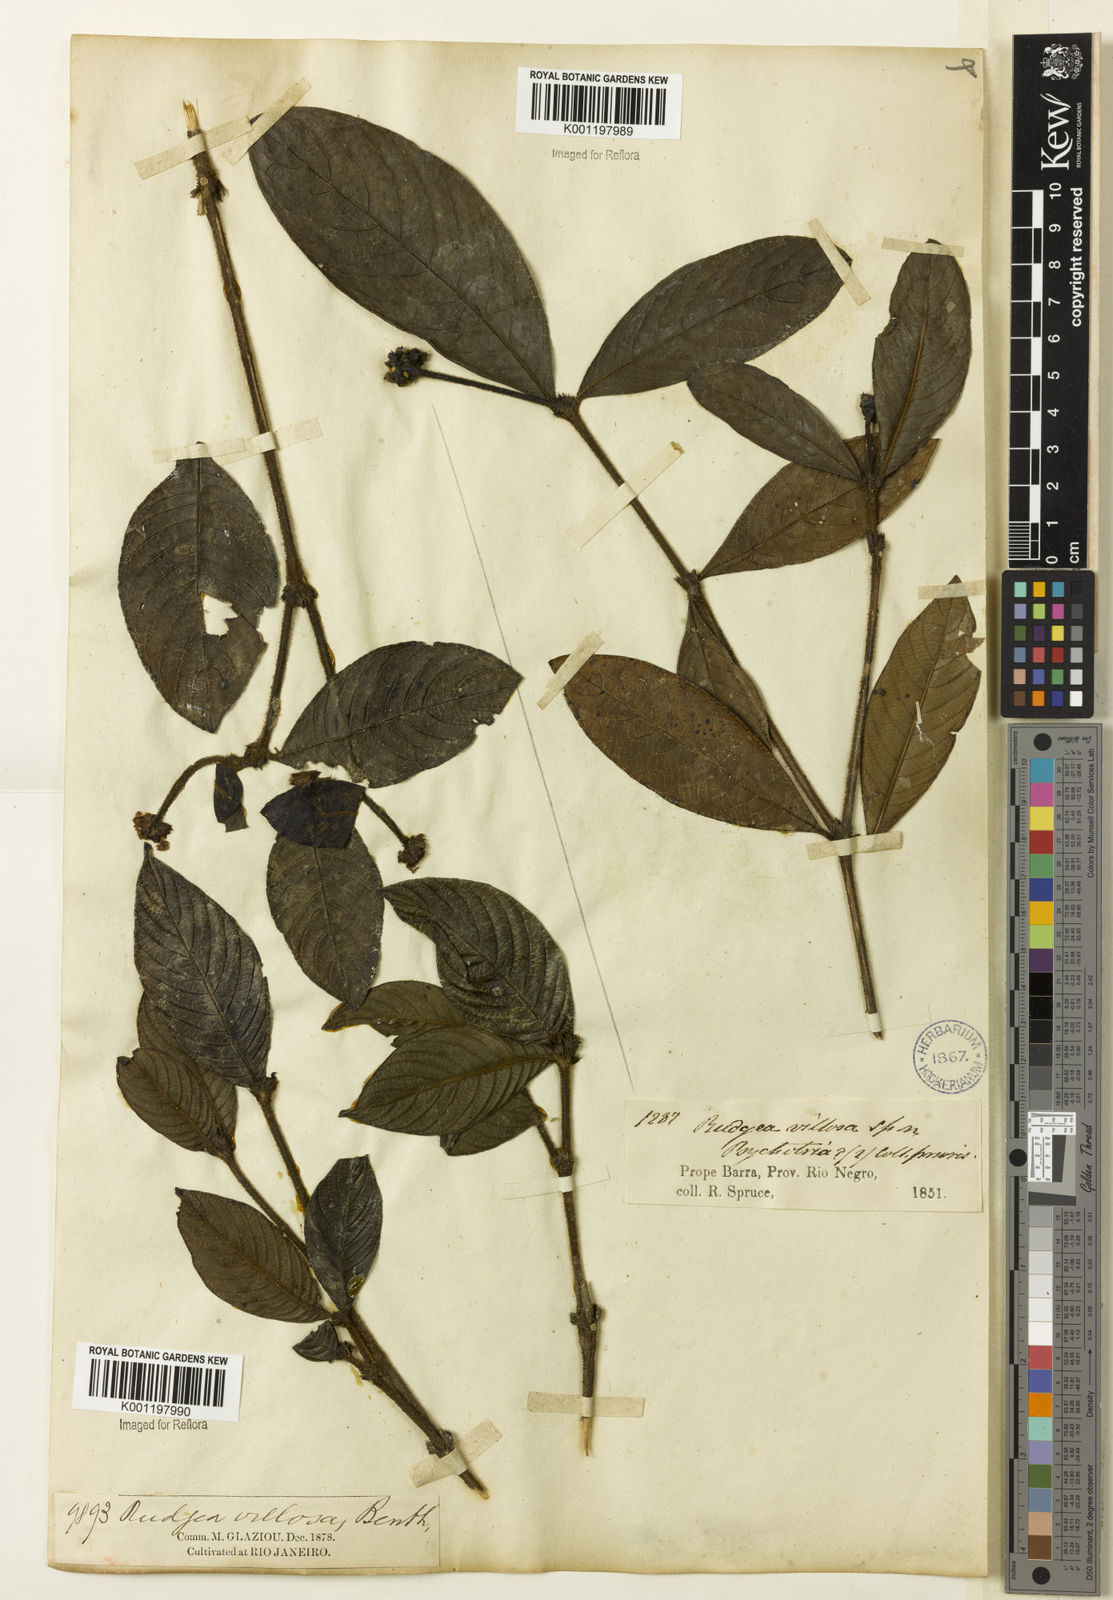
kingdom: Plantae
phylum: Tracheophyta
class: Magnoliopsida
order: Gentianales
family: Rubiaceae
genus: Psychotria
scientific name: Psychotria
